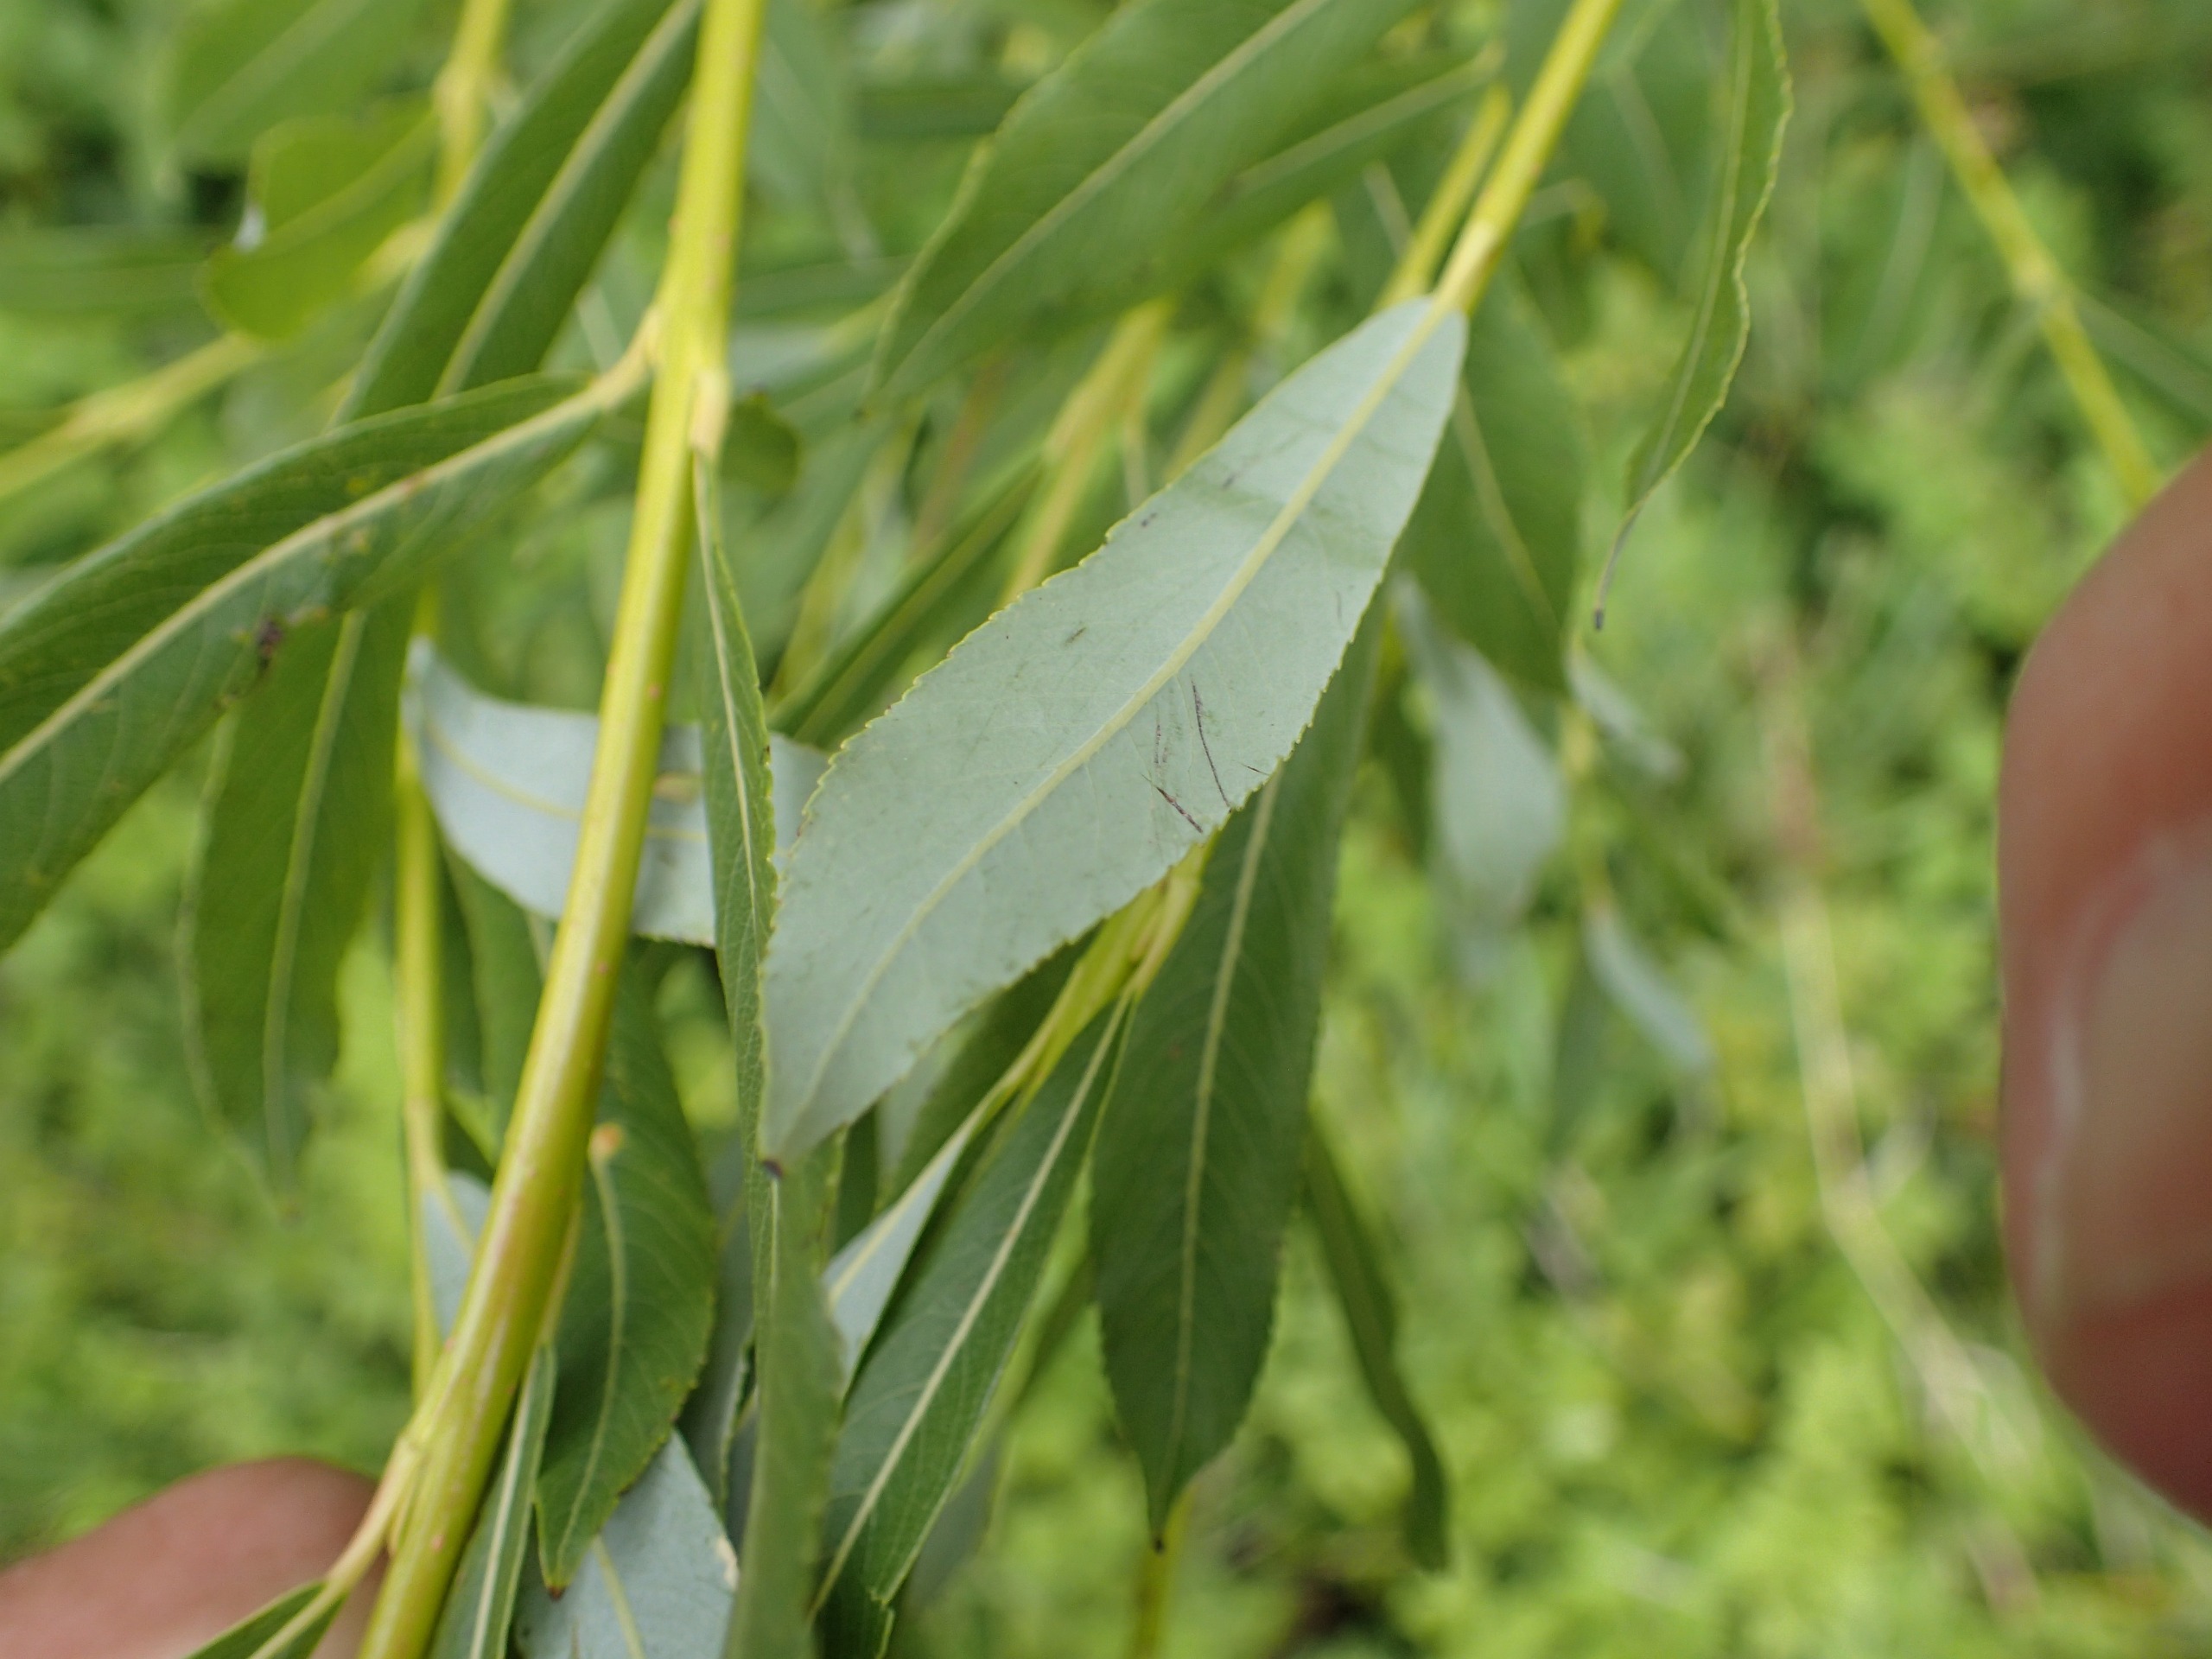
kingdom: Plantae
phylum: Tracheophyta
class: Magnoliopsida
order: Malpighiales
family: Salicaceae
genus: Salix
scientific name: Salix purpurea
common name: Purpur-pil
